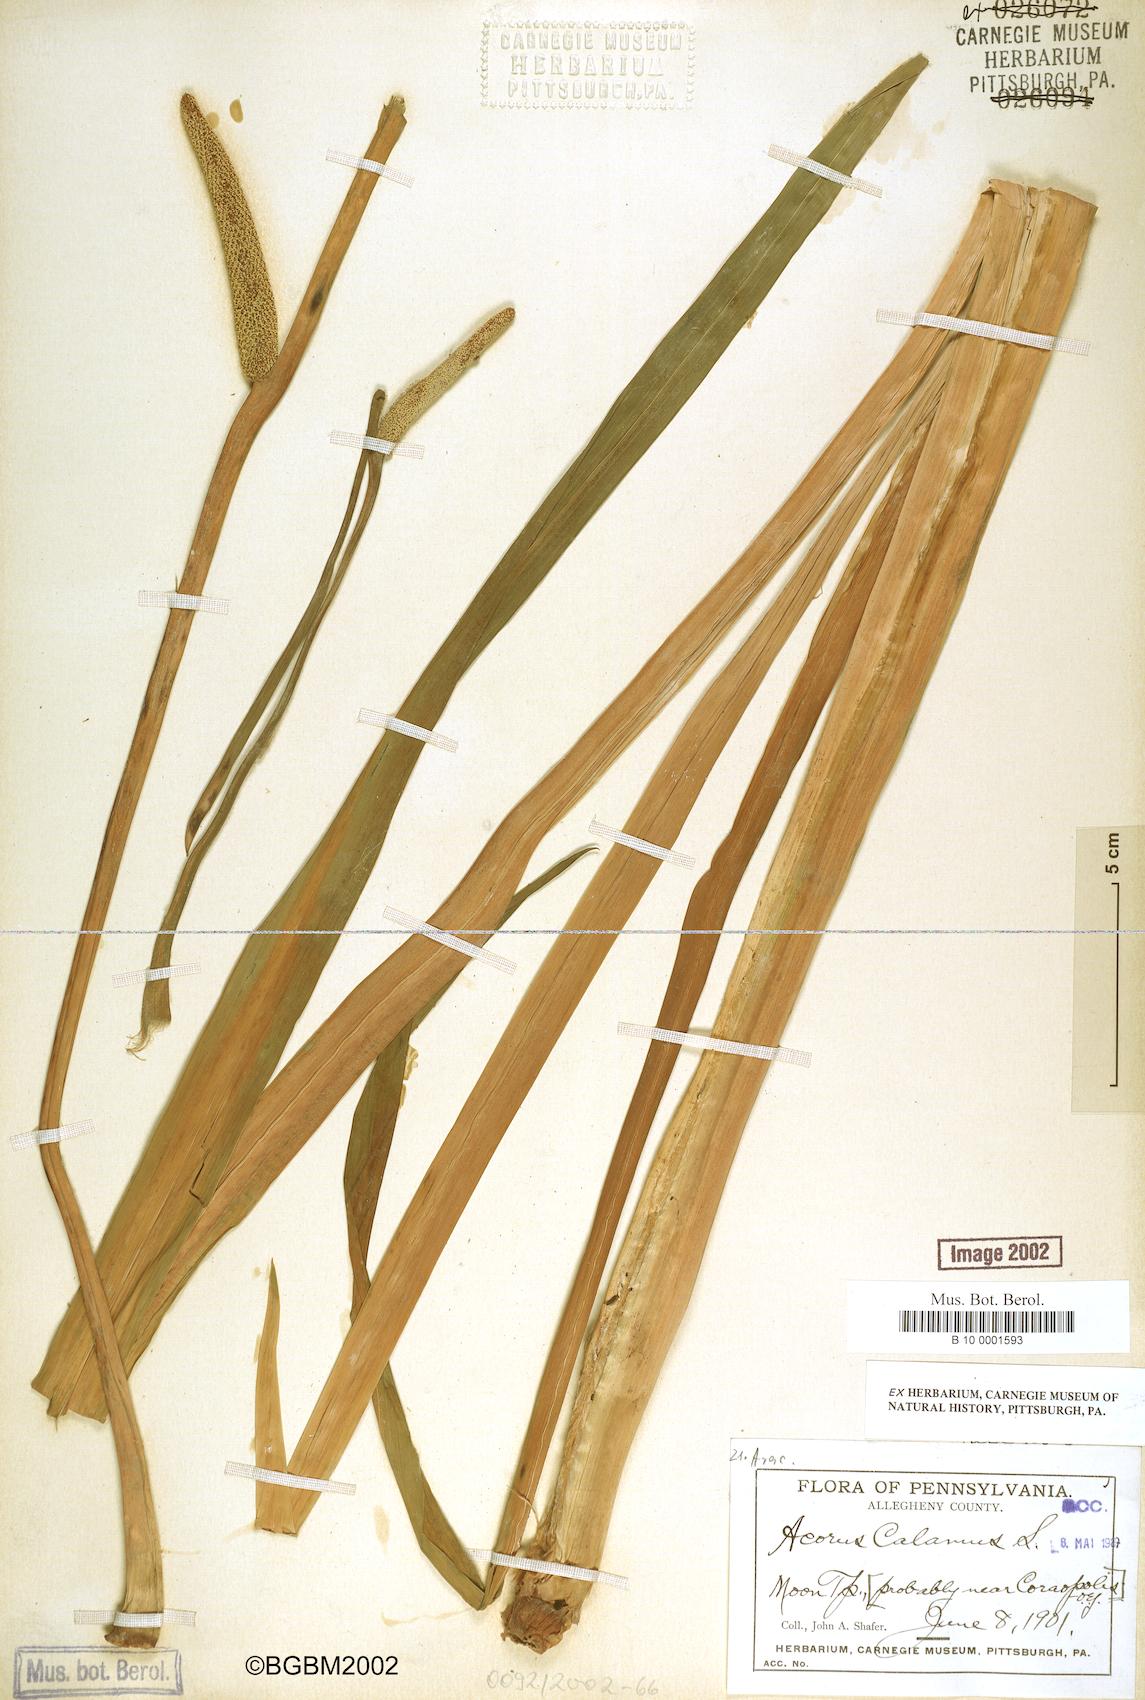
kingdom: Plantae
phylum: Tracheophyta
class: Liliopsida
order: Acorales
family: Acoraceae
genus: Acorus
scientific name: Acorus calamus
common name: Sweet-flag
